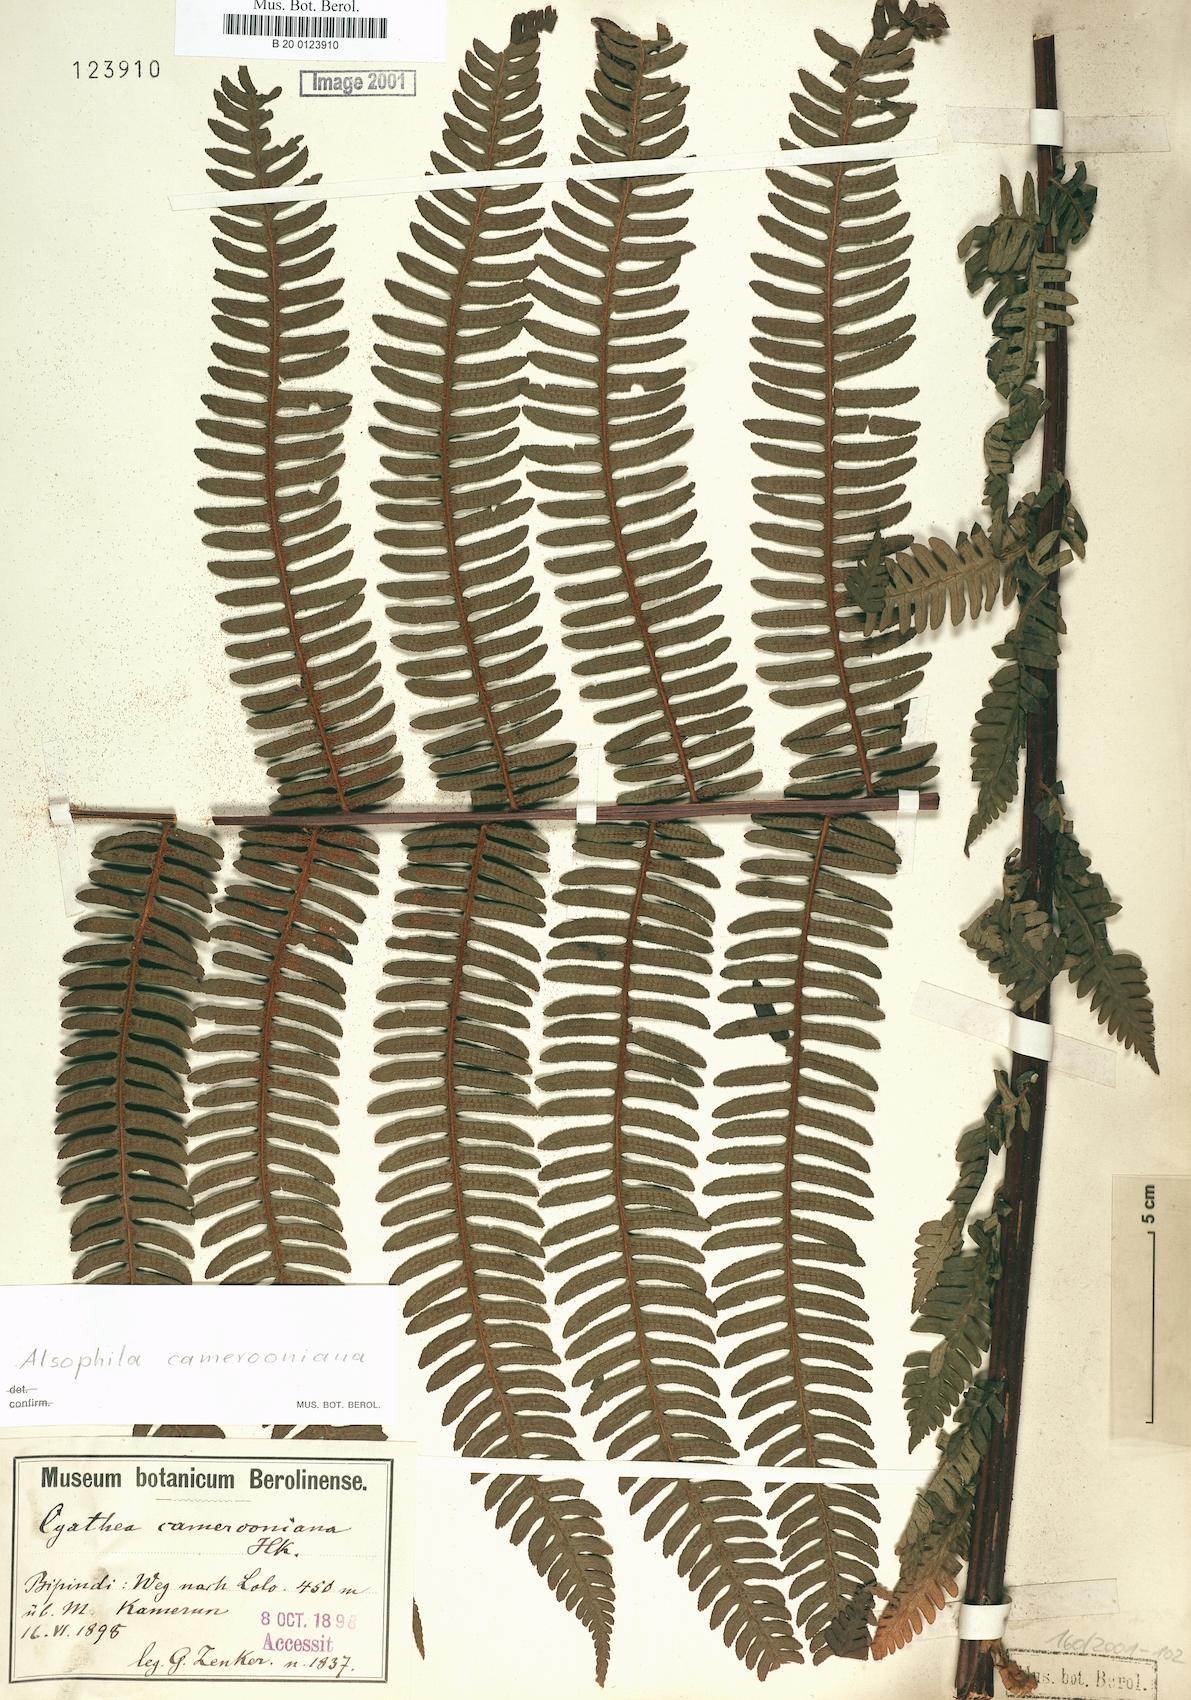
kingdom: Plantae
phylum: Tracheophyta
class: Polypodiopsida
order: Cyatheales
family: Cyatheaceae
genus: Alsophila
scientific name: Alsophila camerooniana
